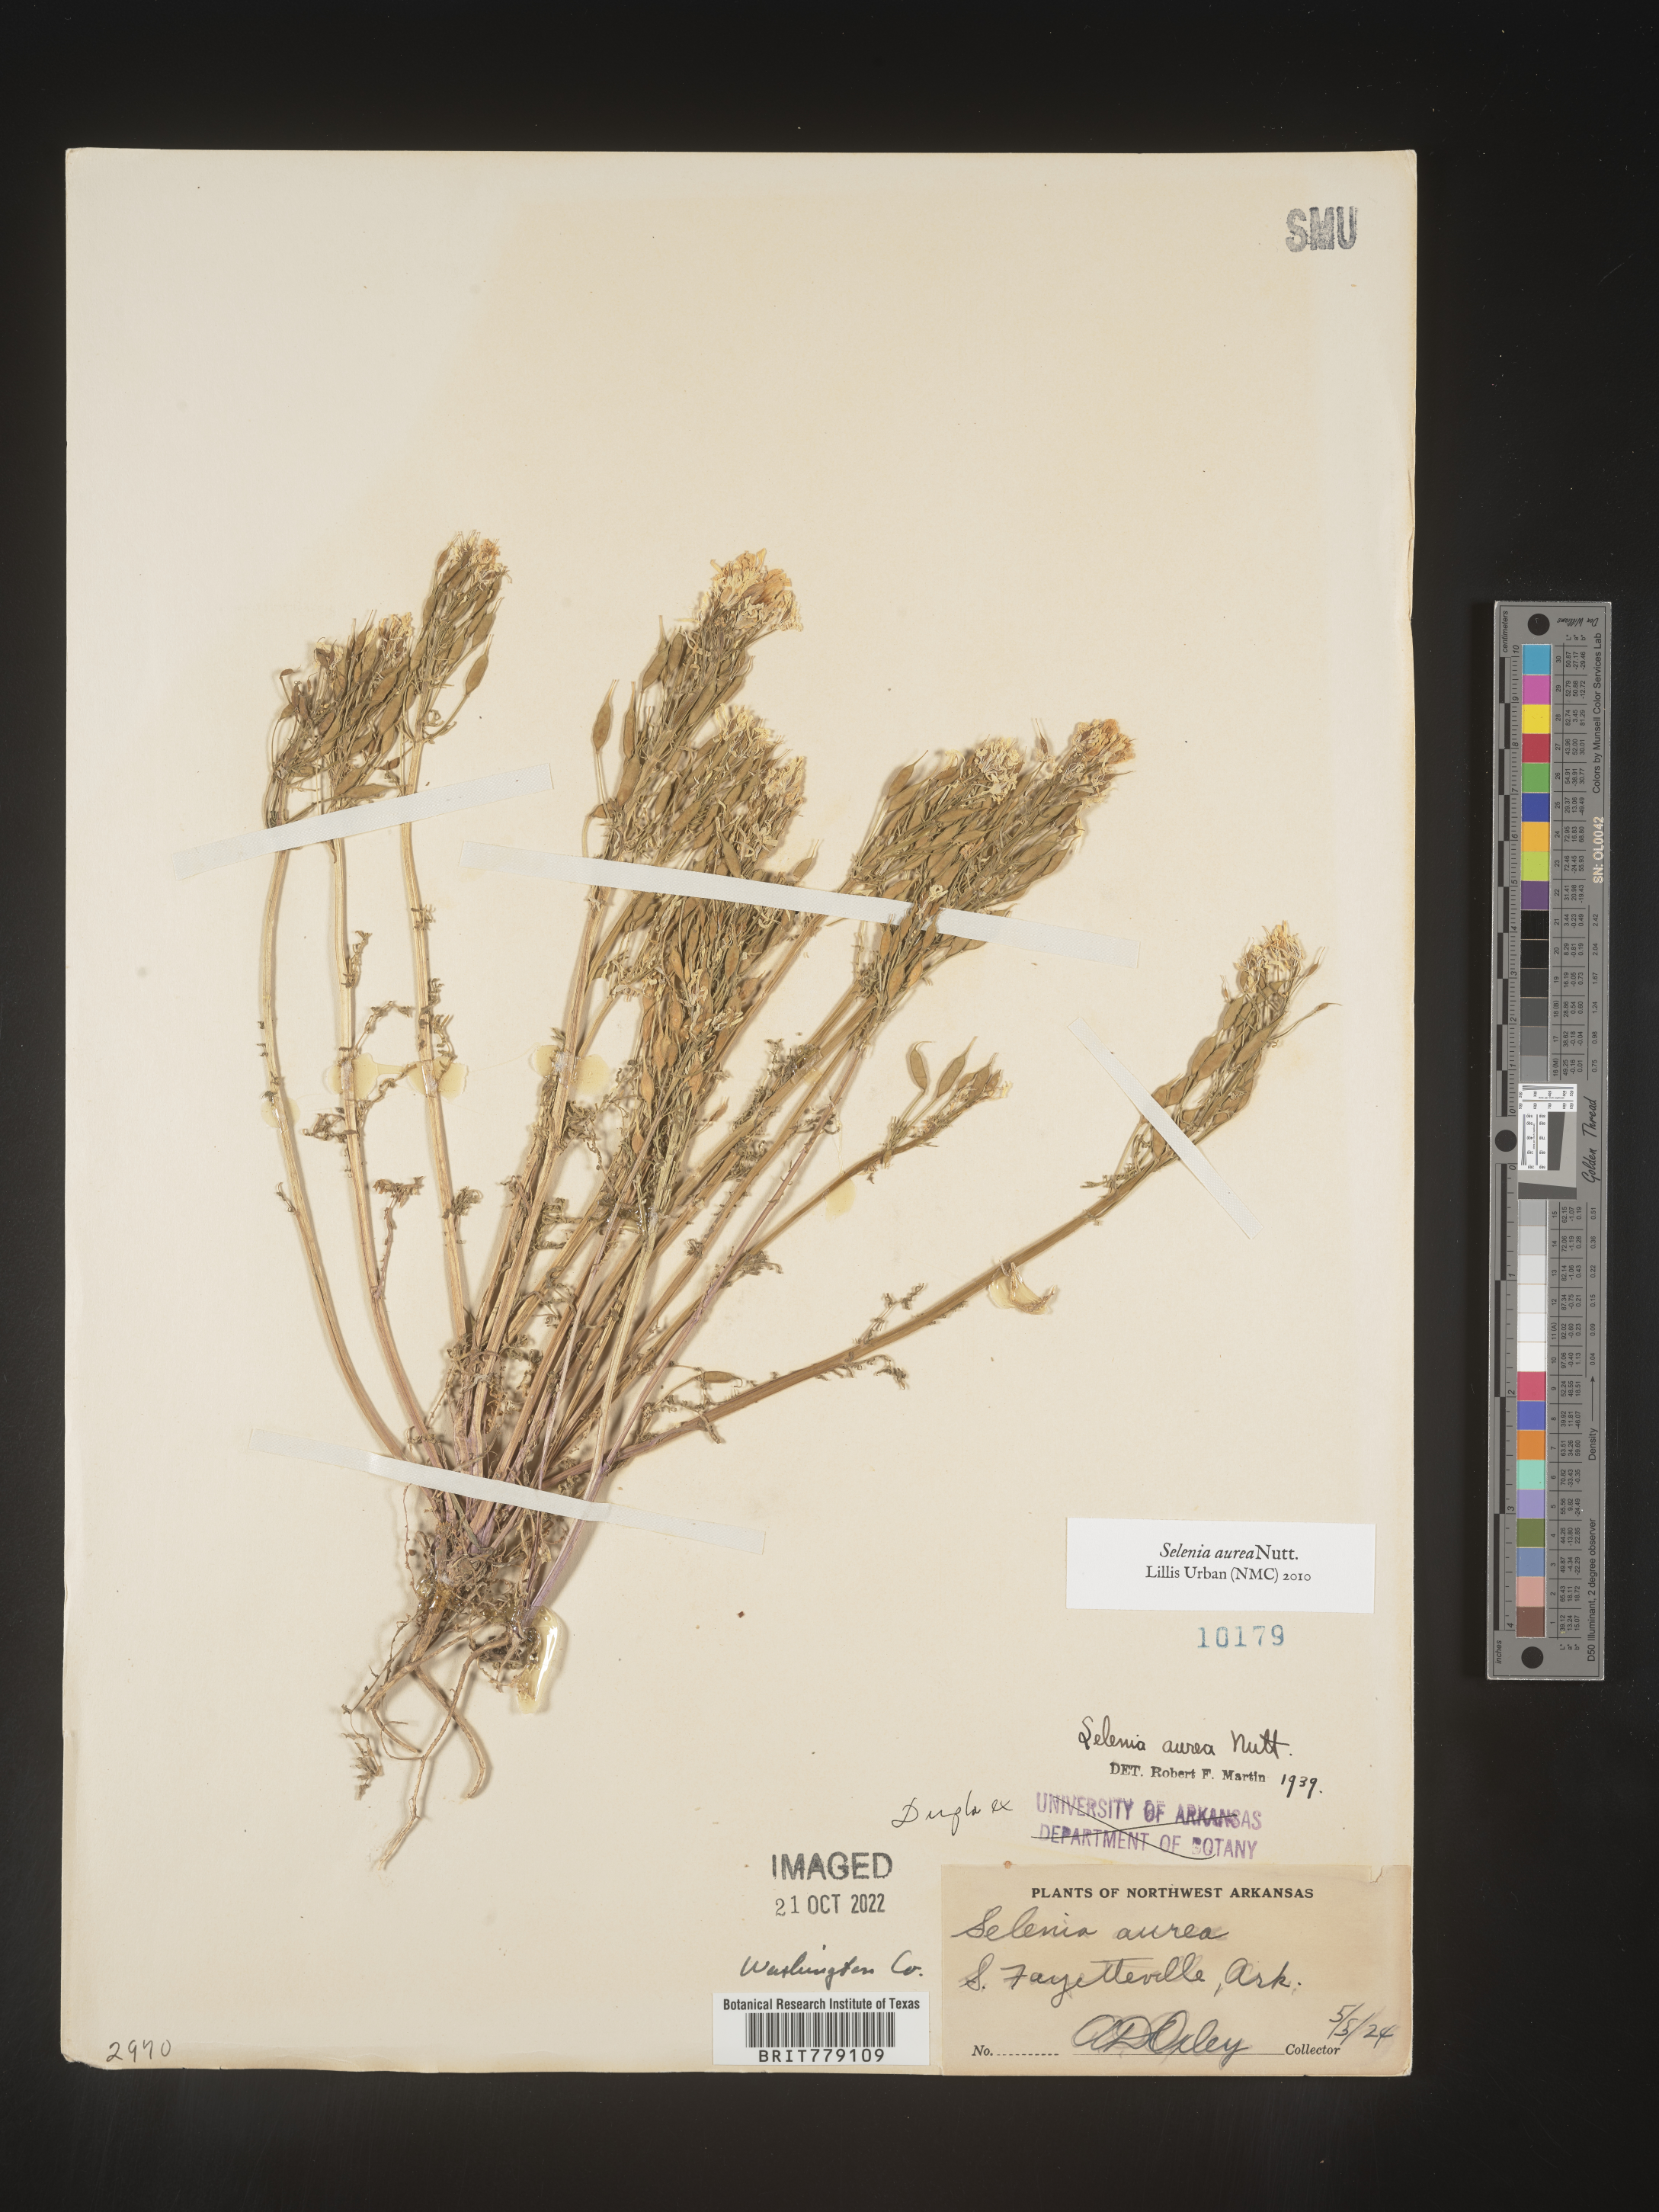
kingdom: Plantae
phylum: Tracheophyta
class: Magnoliopsida
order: Brassicales
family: Brassicaceae
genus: Selenia
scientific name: Selenia
